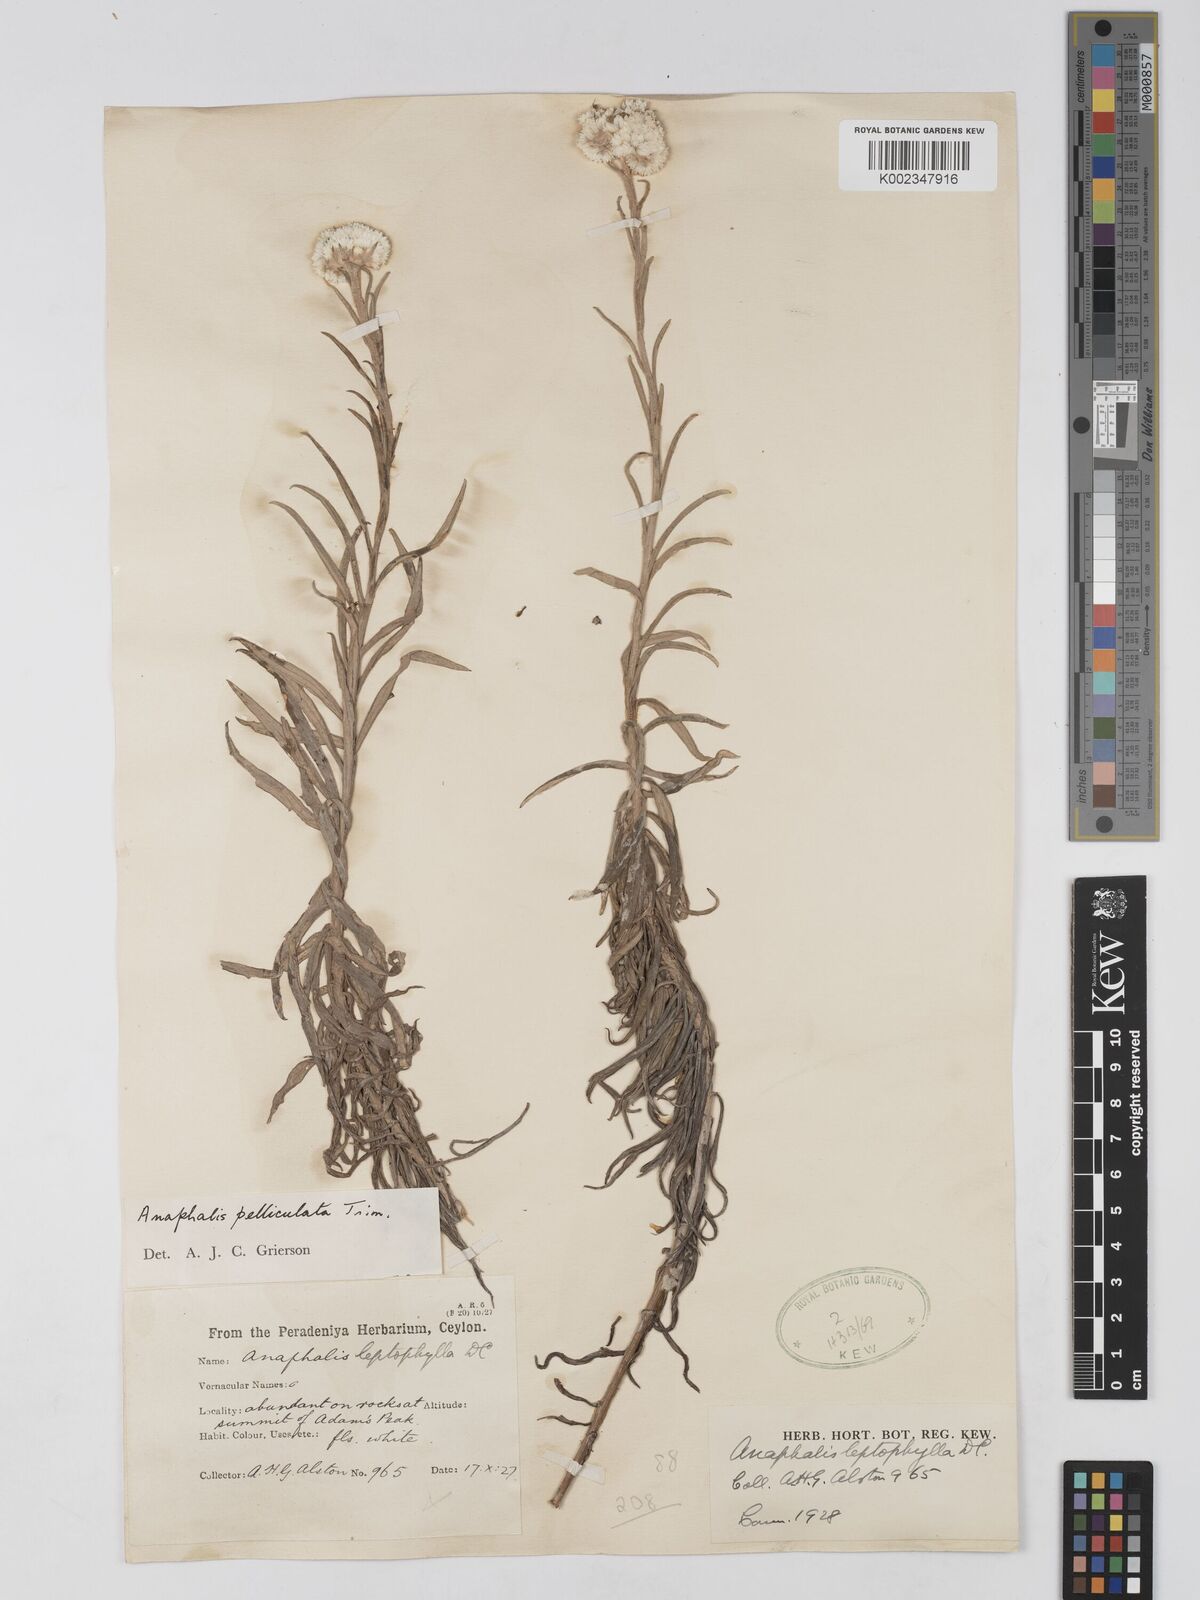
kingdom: Plantae
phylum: Tracheophyta
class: Magnoliopsida
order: Asterales
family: Asteraceae
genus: Anaphalis
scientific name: Anaphalis pelliculata
